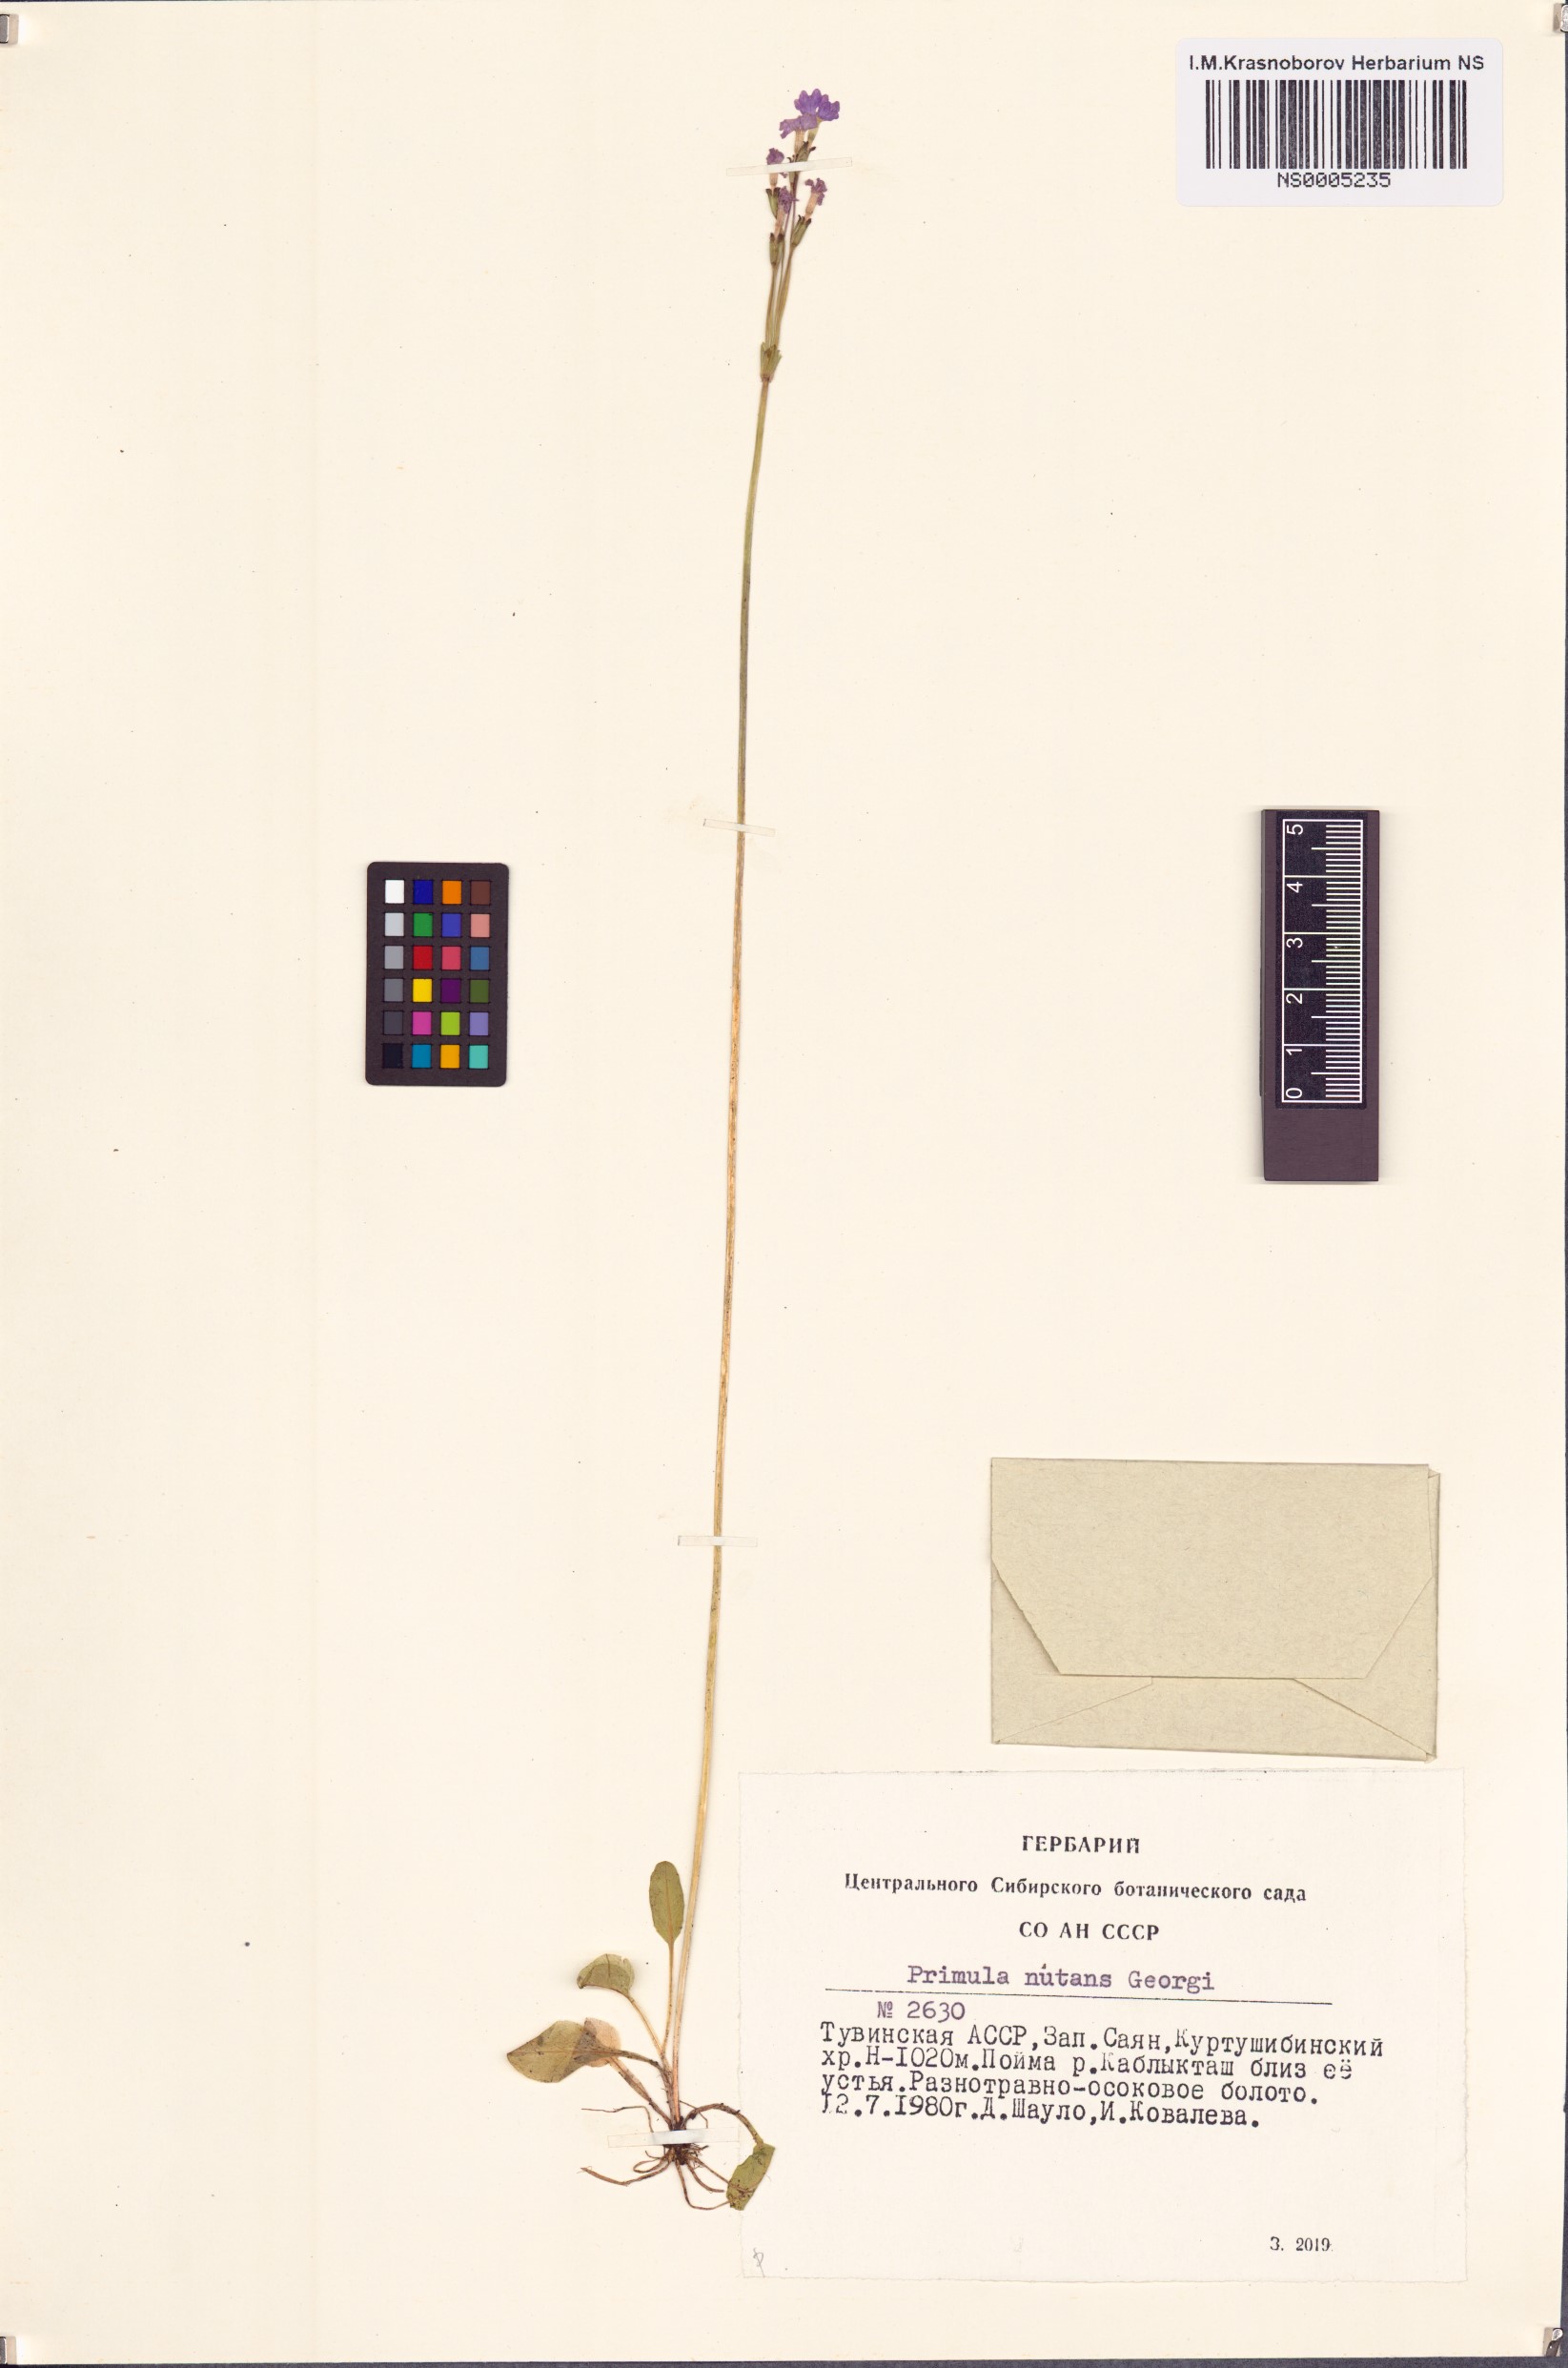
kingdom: Plantae
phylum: Tracheophyta
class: Magnoliopsida
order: Ericales
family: Primulaceae
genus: Primula
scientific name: Primula nutans
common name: Siberian primrose
